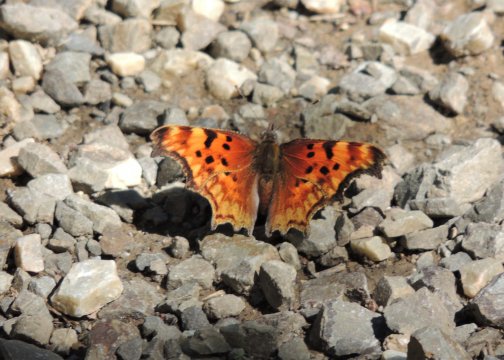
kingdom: Animalia
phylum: Arthropoda
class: Insecta
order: Lepidoptera
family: Nymphalidae
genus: Polygonia
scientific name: Polygonia gracilis
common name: Hoary Comma
